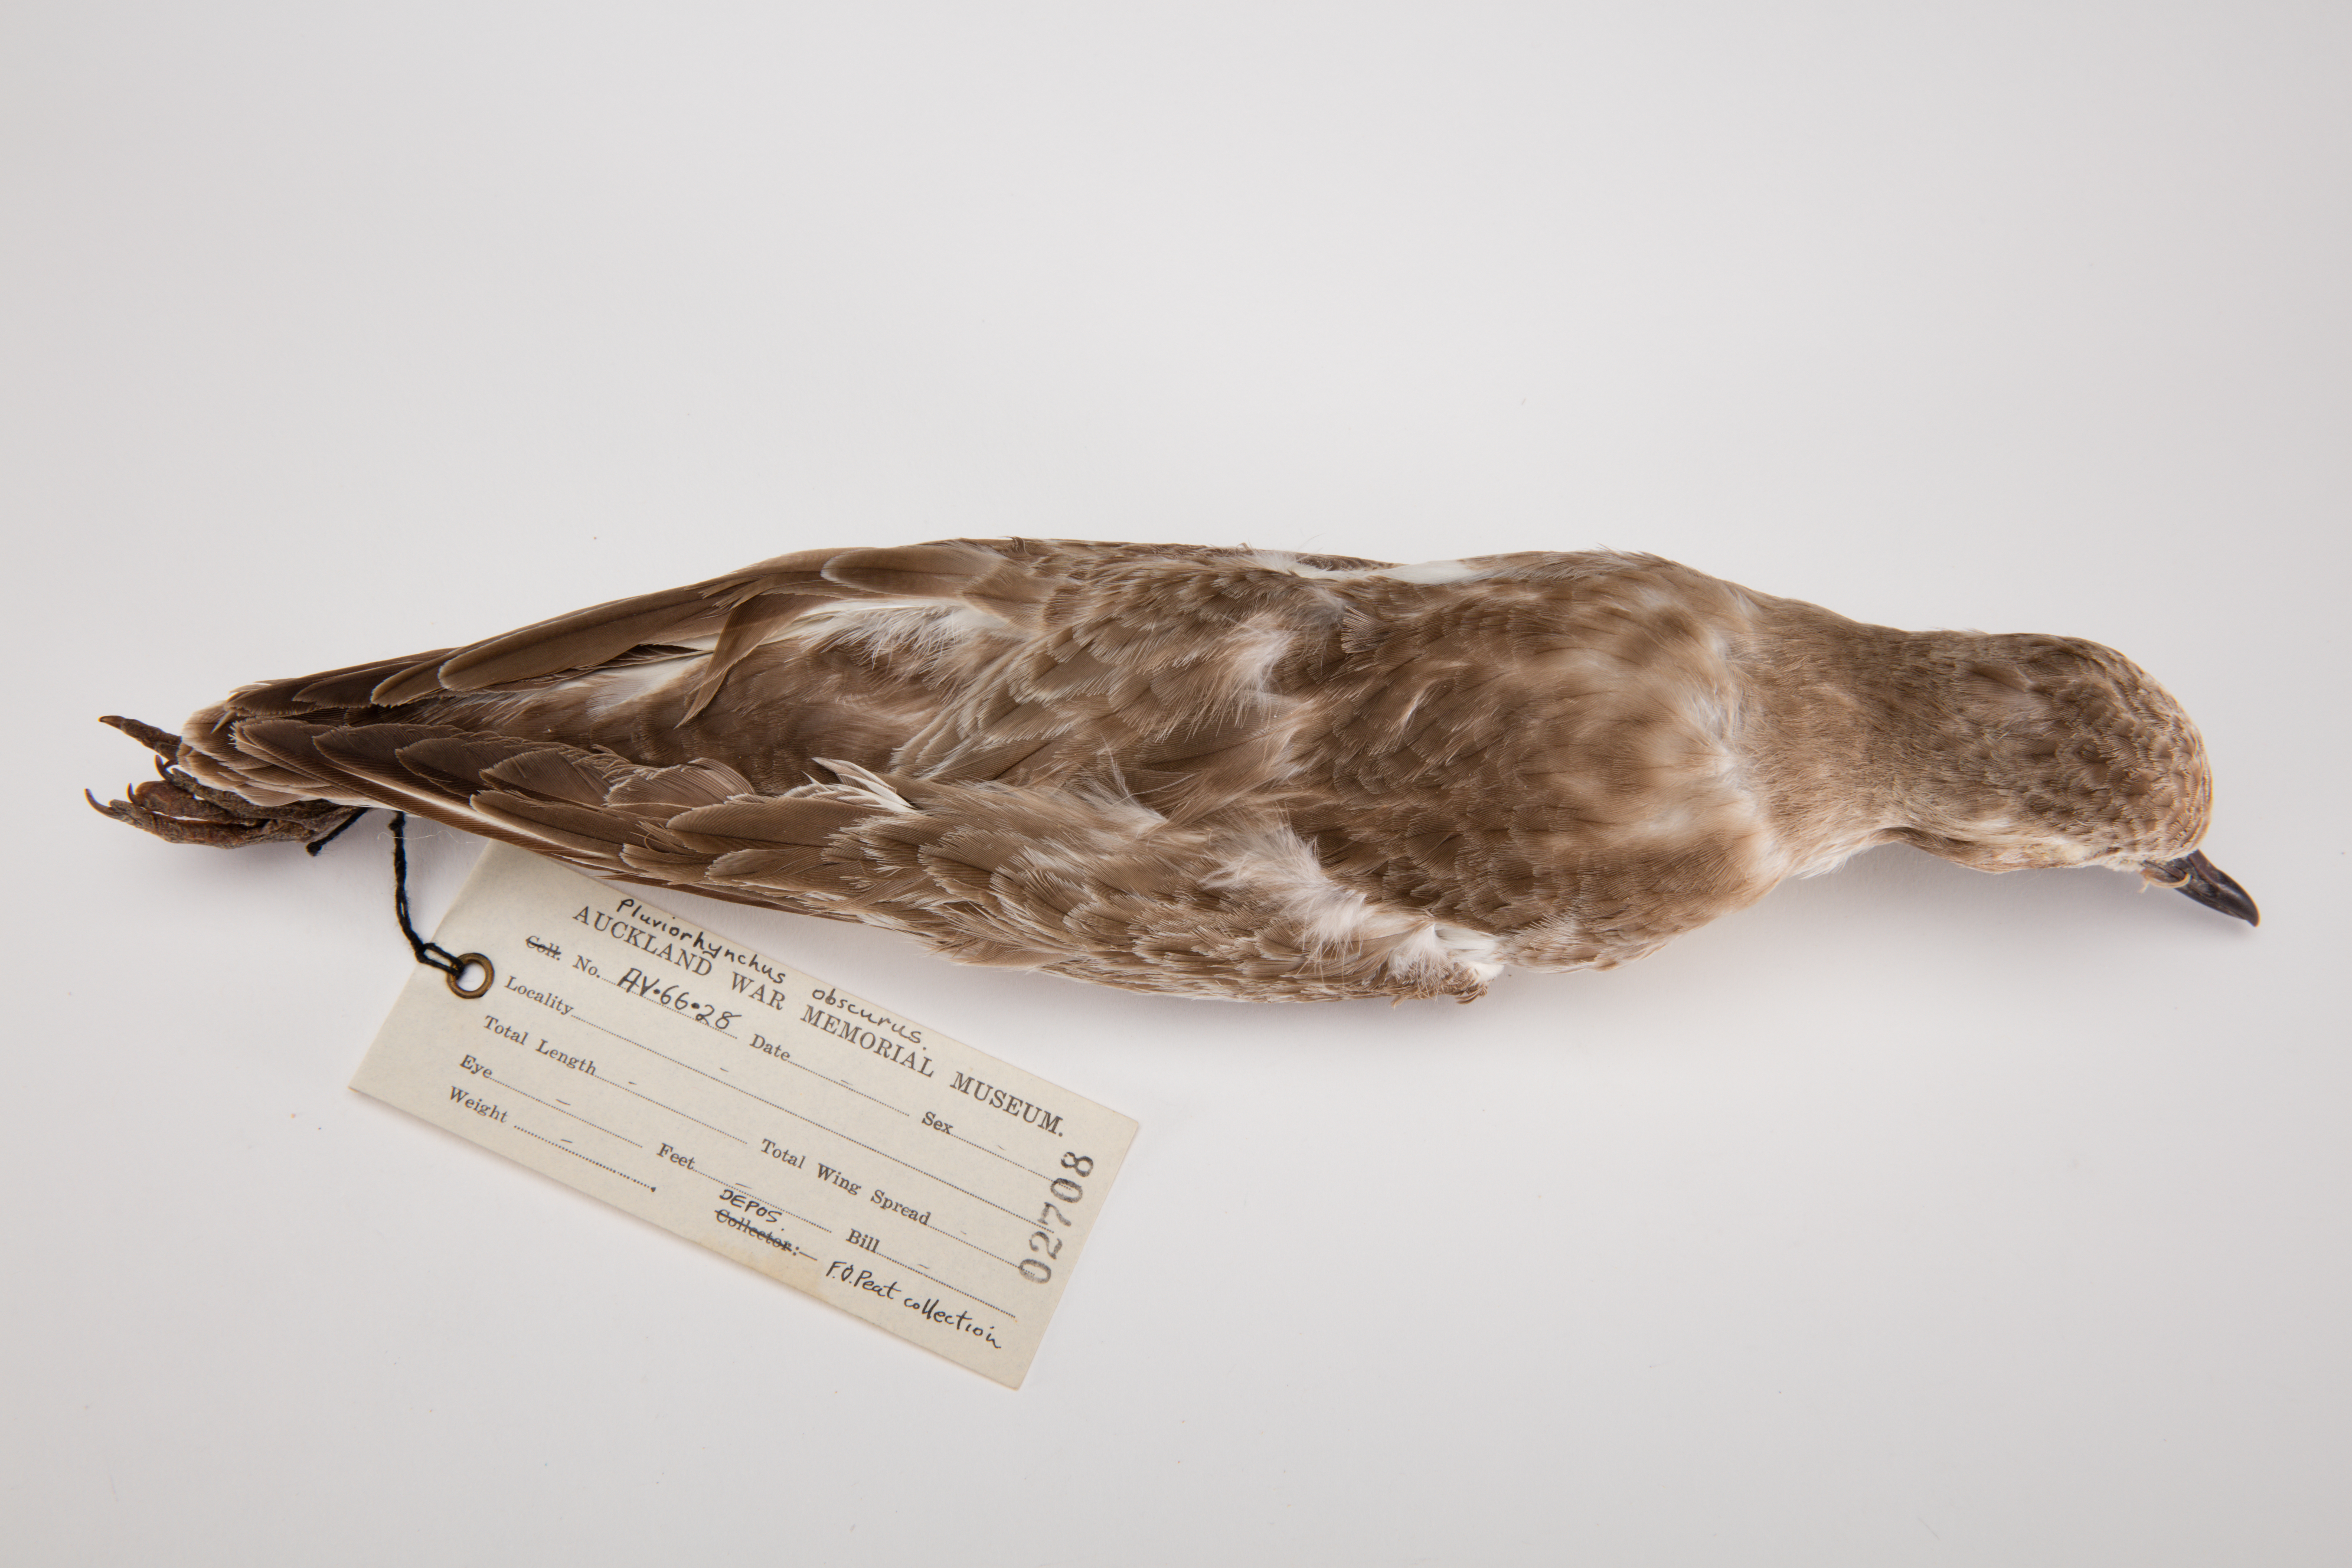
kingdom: Animalia
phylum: Chordata
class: Aves
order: Charadriiformes
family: Charadriidae
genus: Charadrius
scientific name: Charadrius obscurus
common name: New zealand plover
